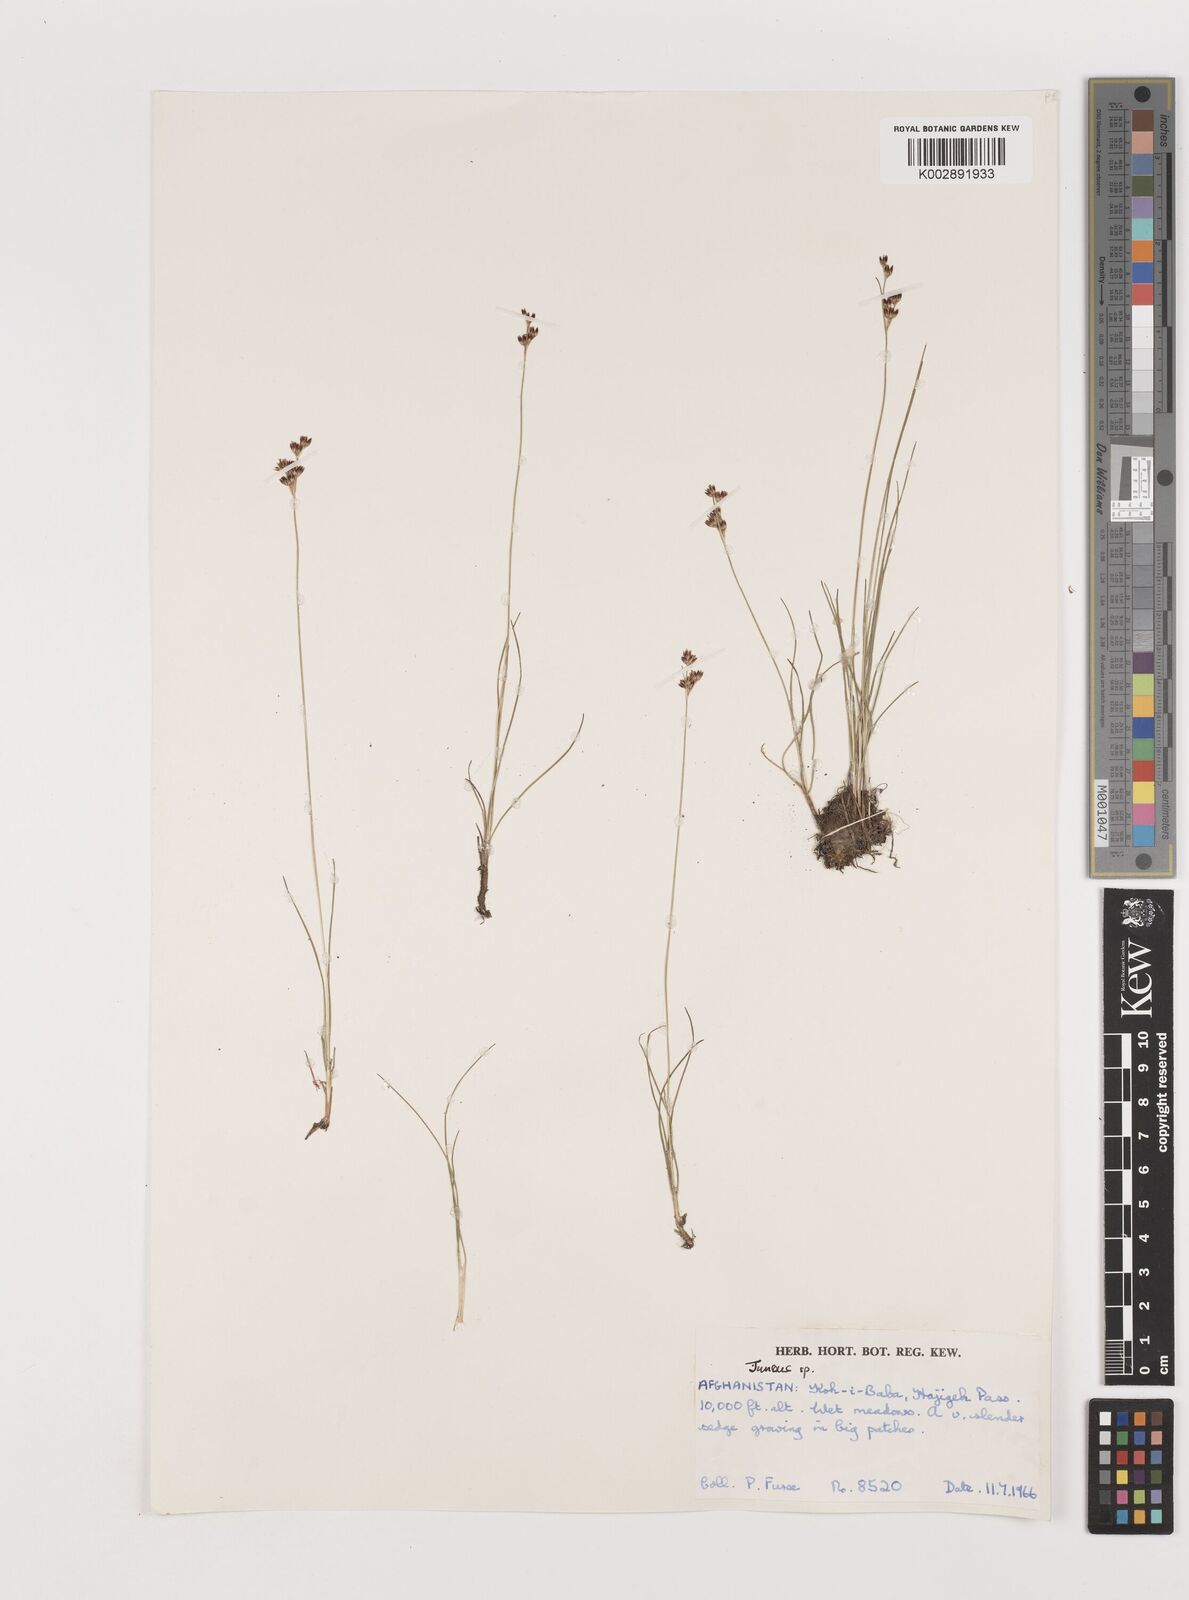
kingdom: Plantae
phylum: Tracheophyta
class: Liliopsida
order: Poales
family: Juncaceae
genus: Juncus
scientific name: Juncus
